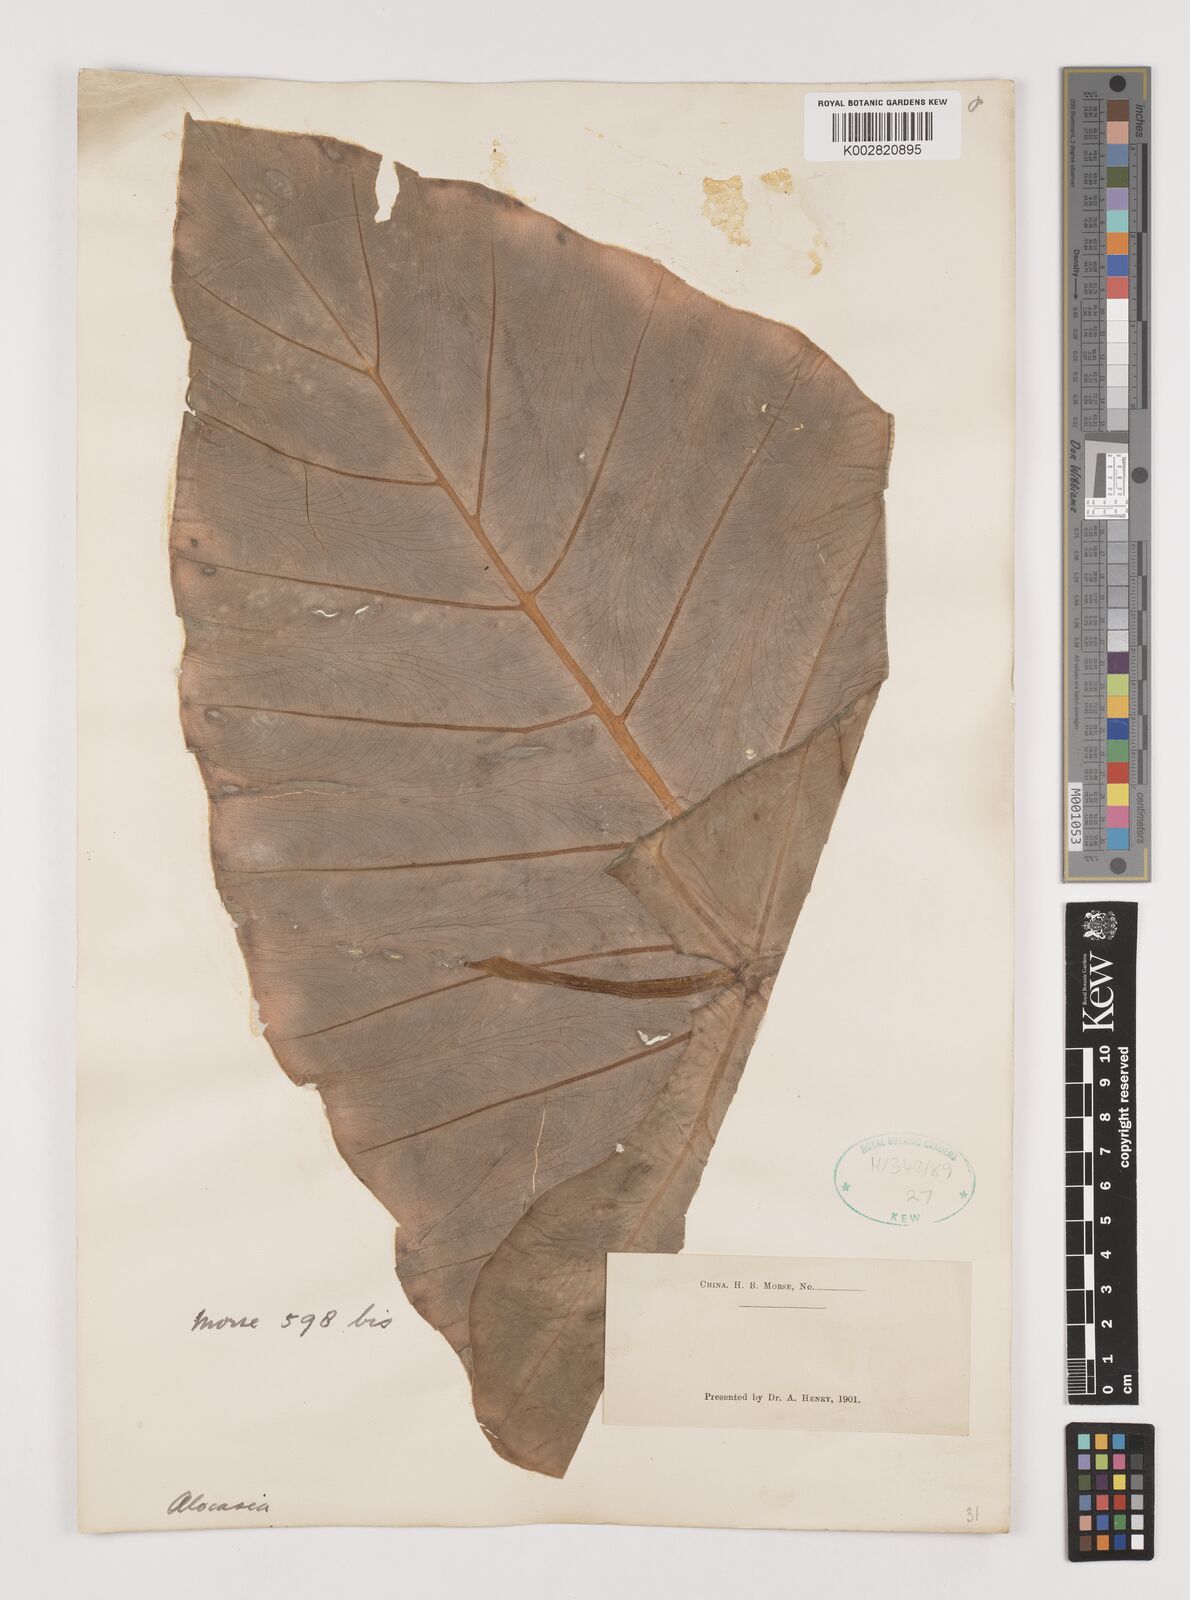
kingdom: Plantae
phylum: Tracheophyta
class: Liliopsida
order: Alismatales
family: Araceae
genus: Alocasia
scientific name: Alocasia
